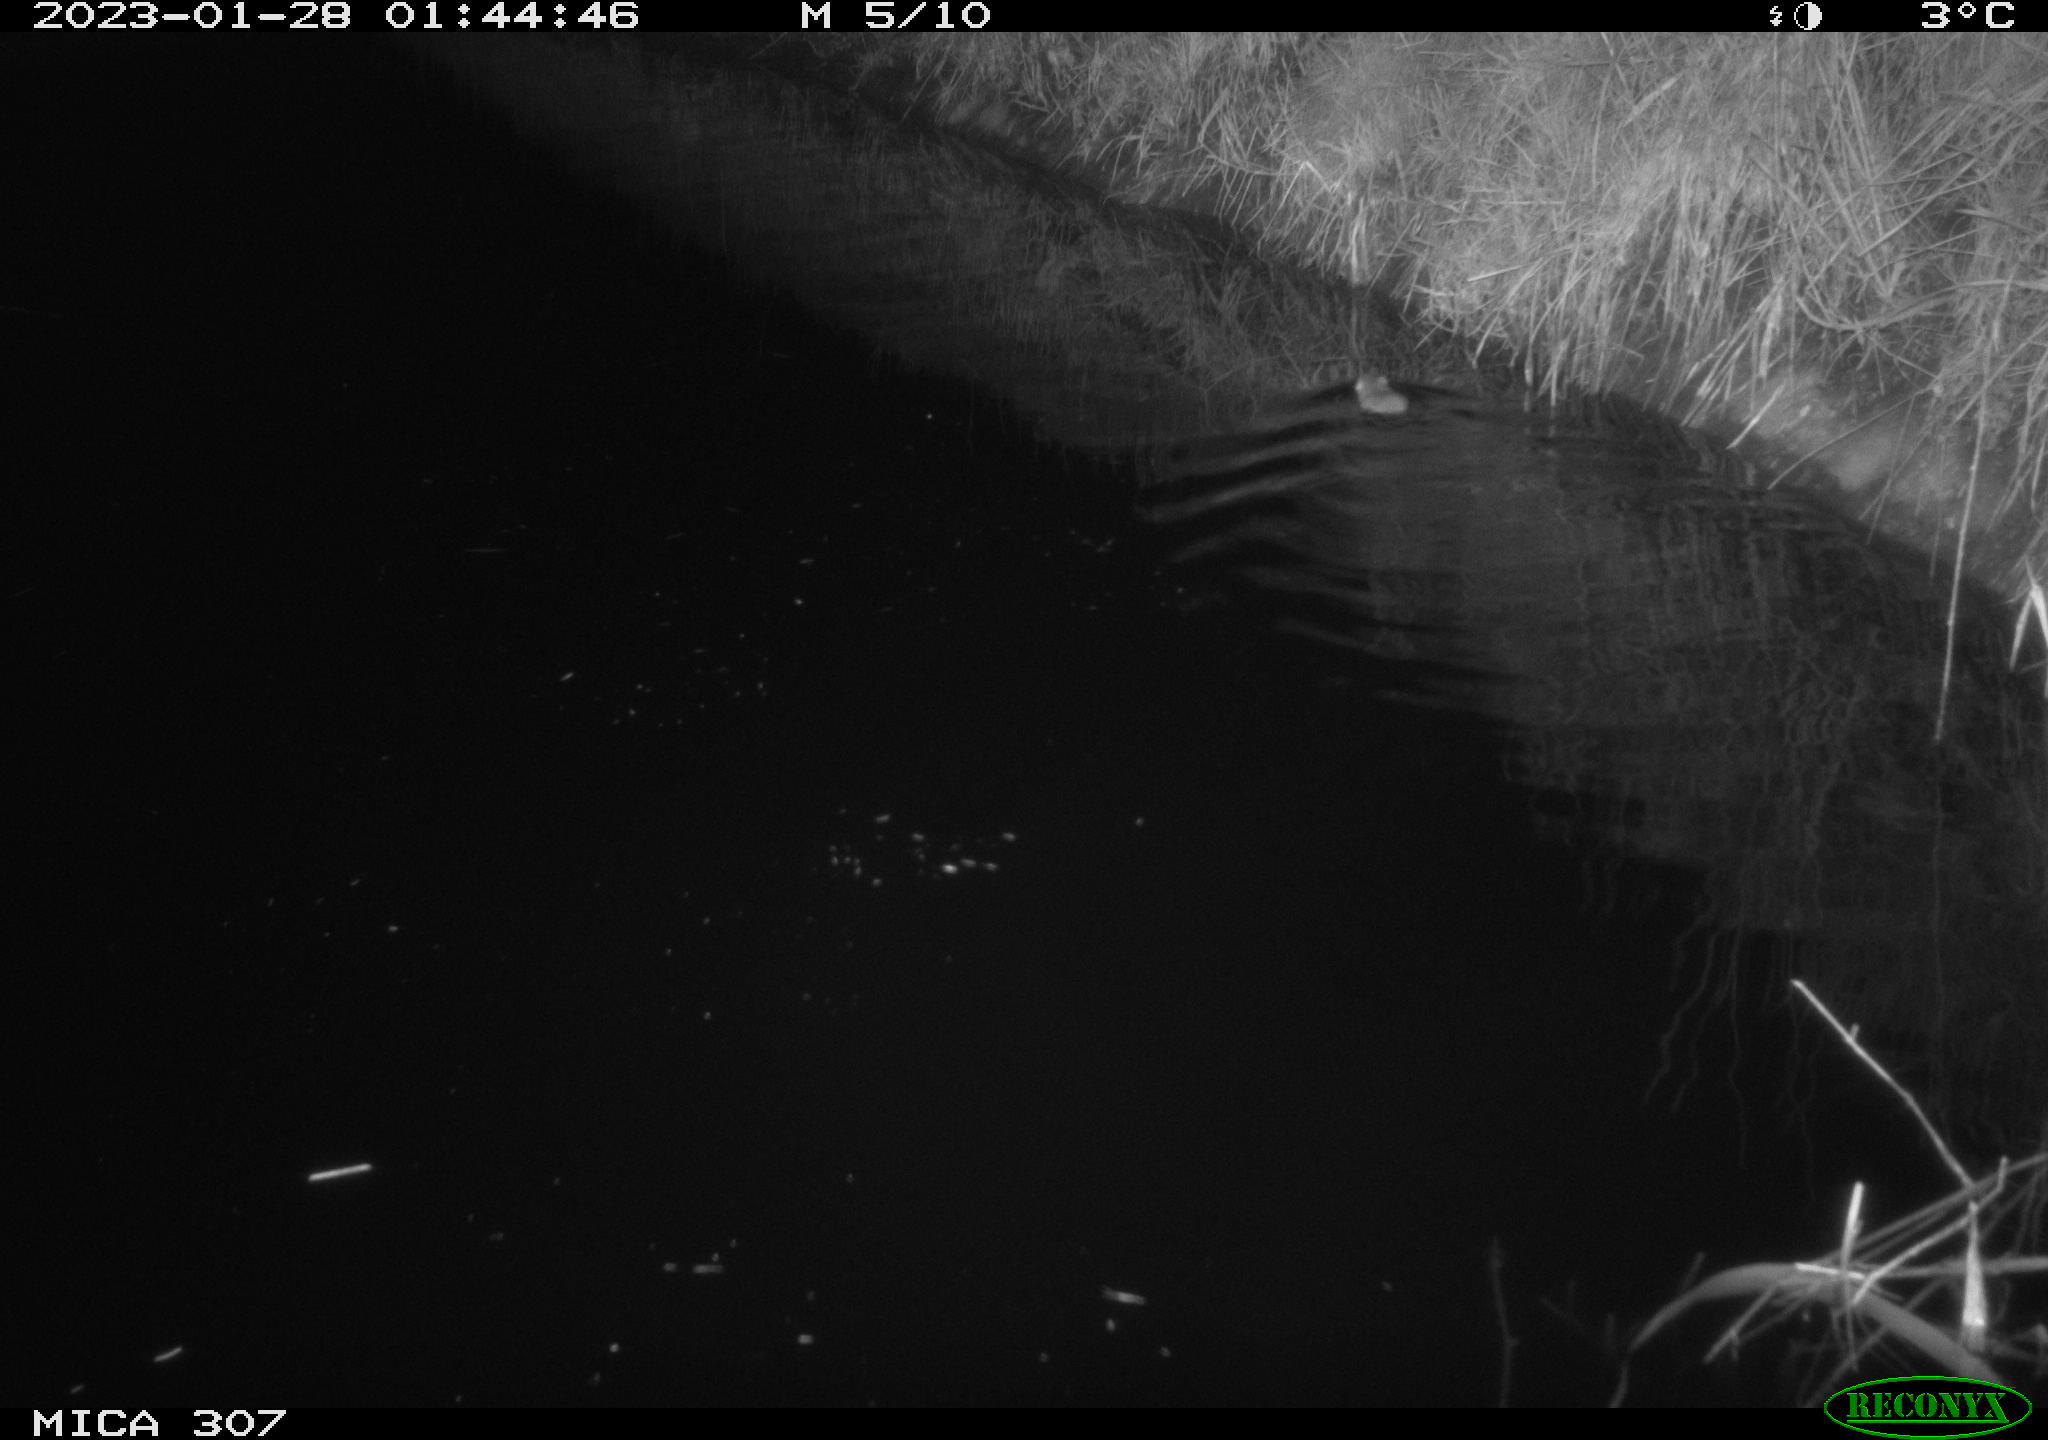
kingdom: Animalia
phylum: Chordata
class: Mammalia
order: Rodentia
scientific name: Rodentia
